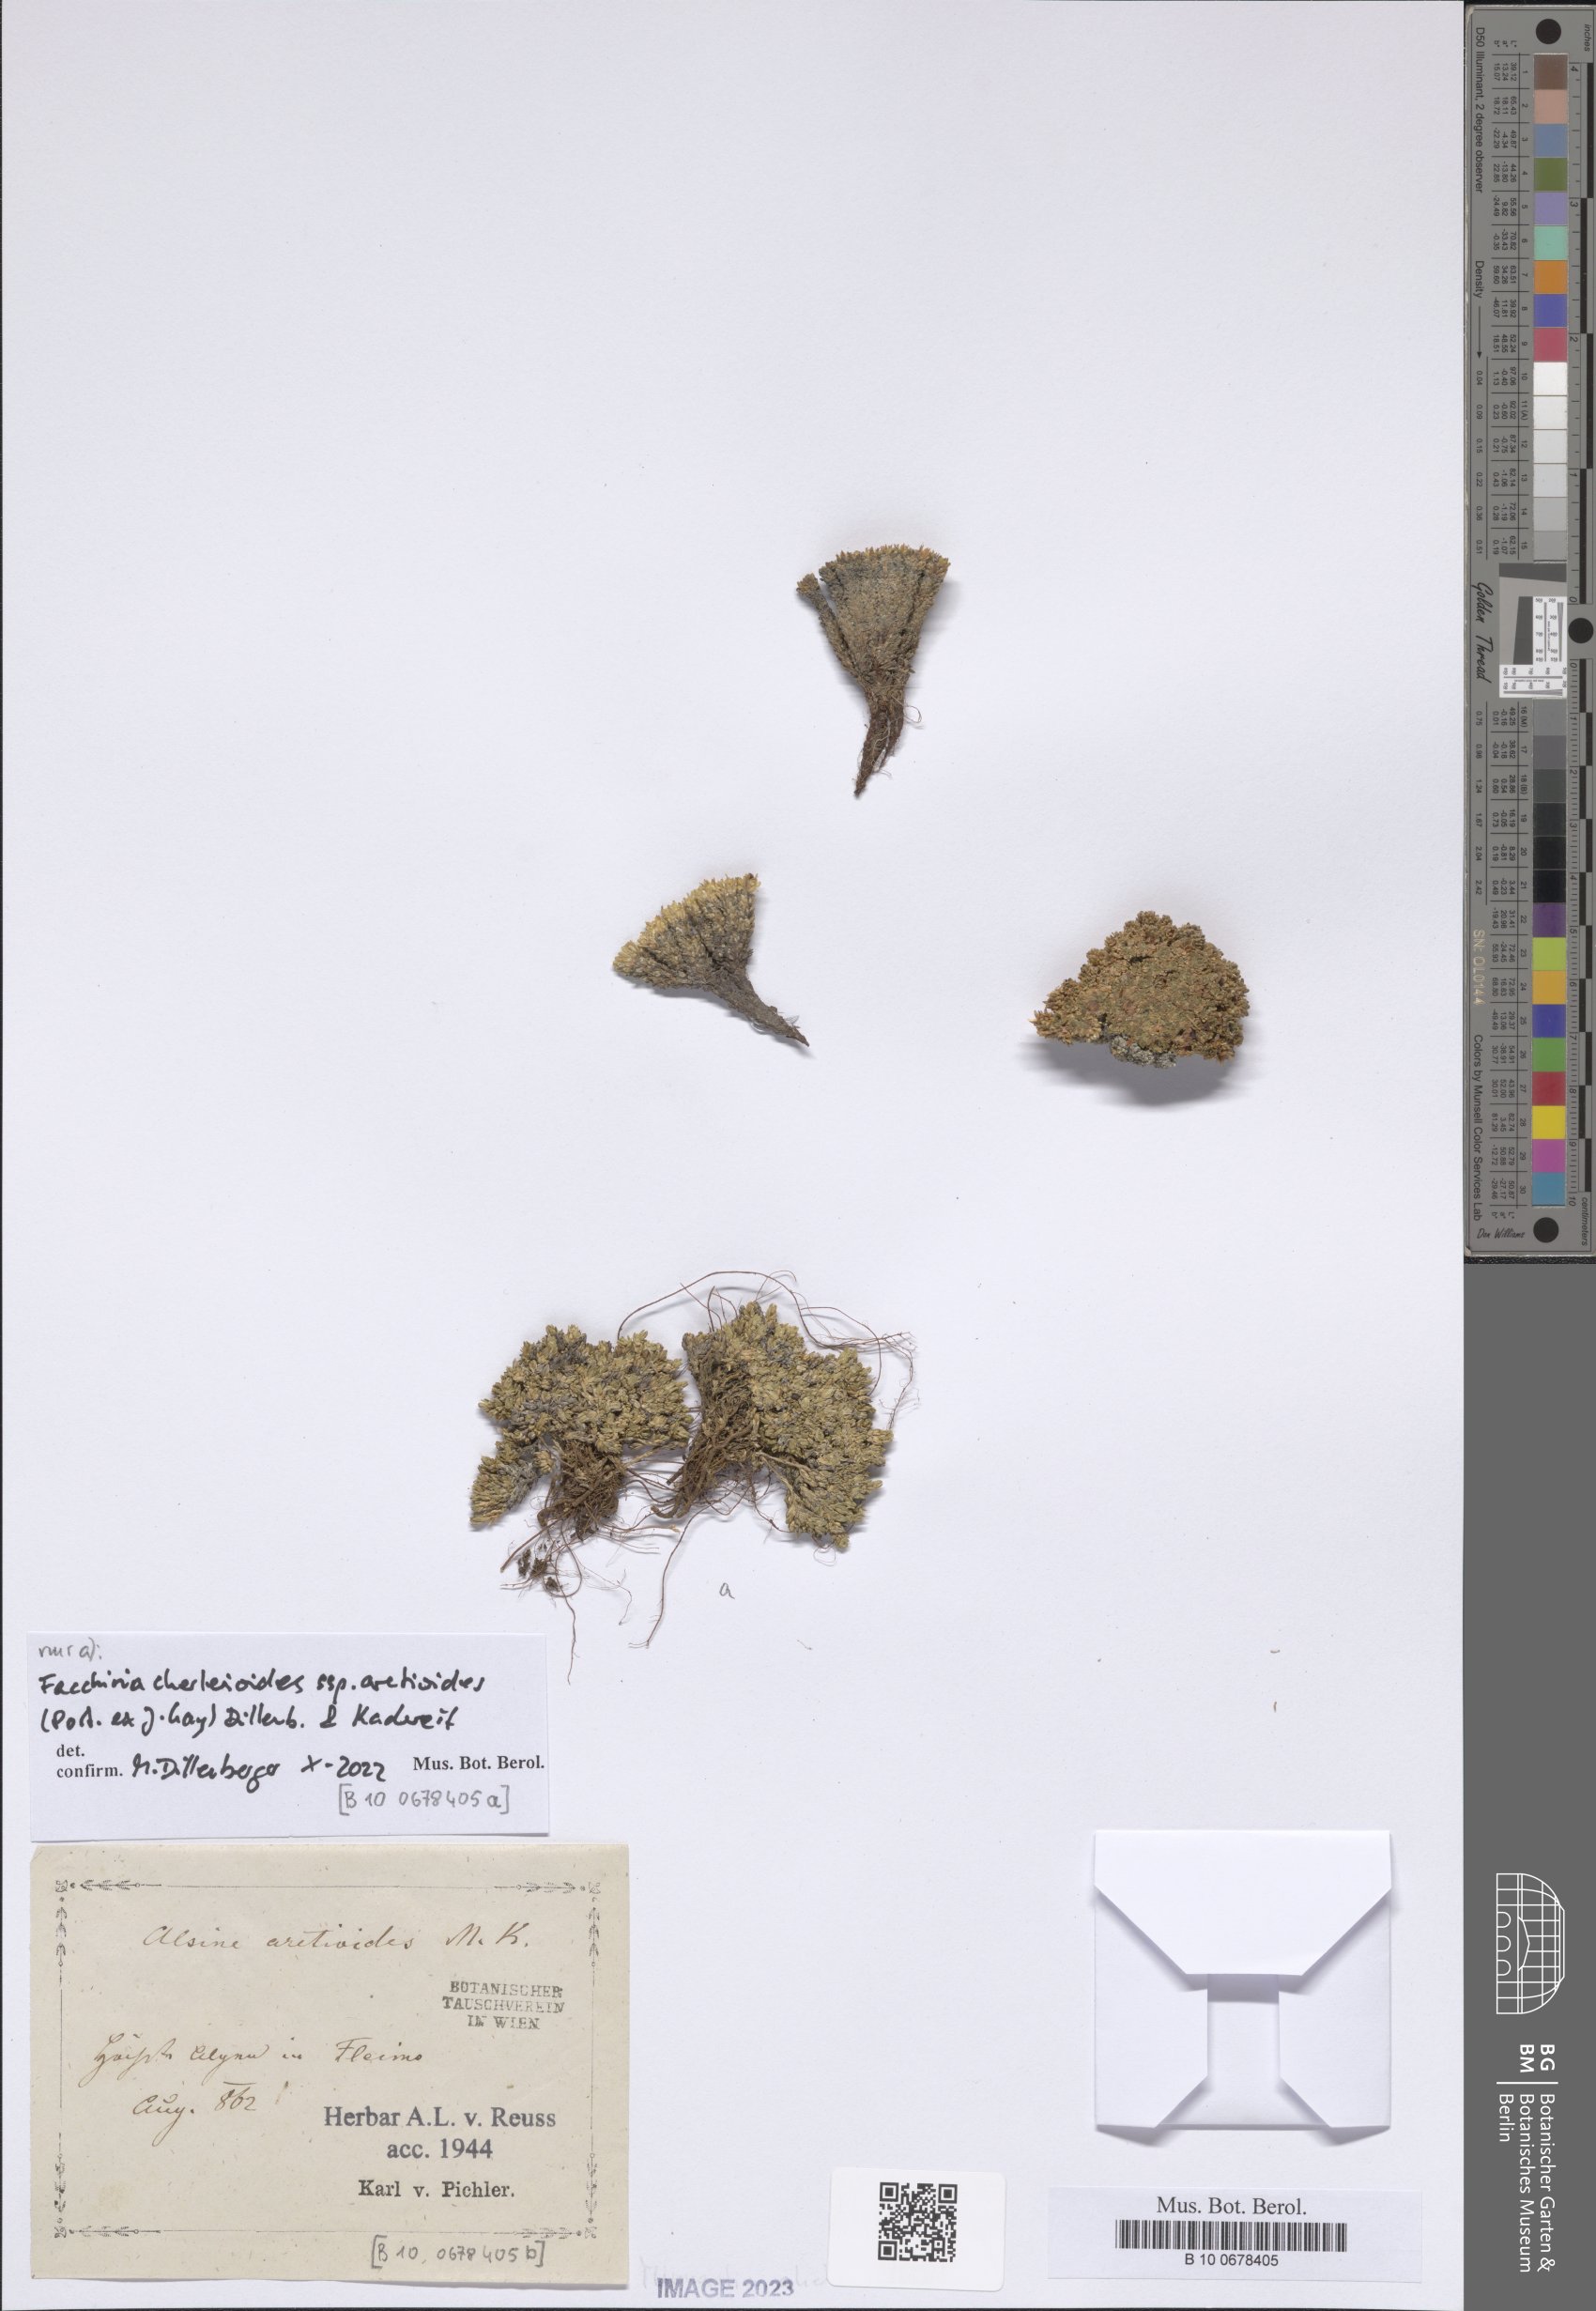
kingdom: Plantae
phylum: Tracheophyta
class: Magnoliopsida
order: Caryophyllales
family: Caryophyllaceae
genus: Facchinia
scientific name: Facchinia cherlerioides
